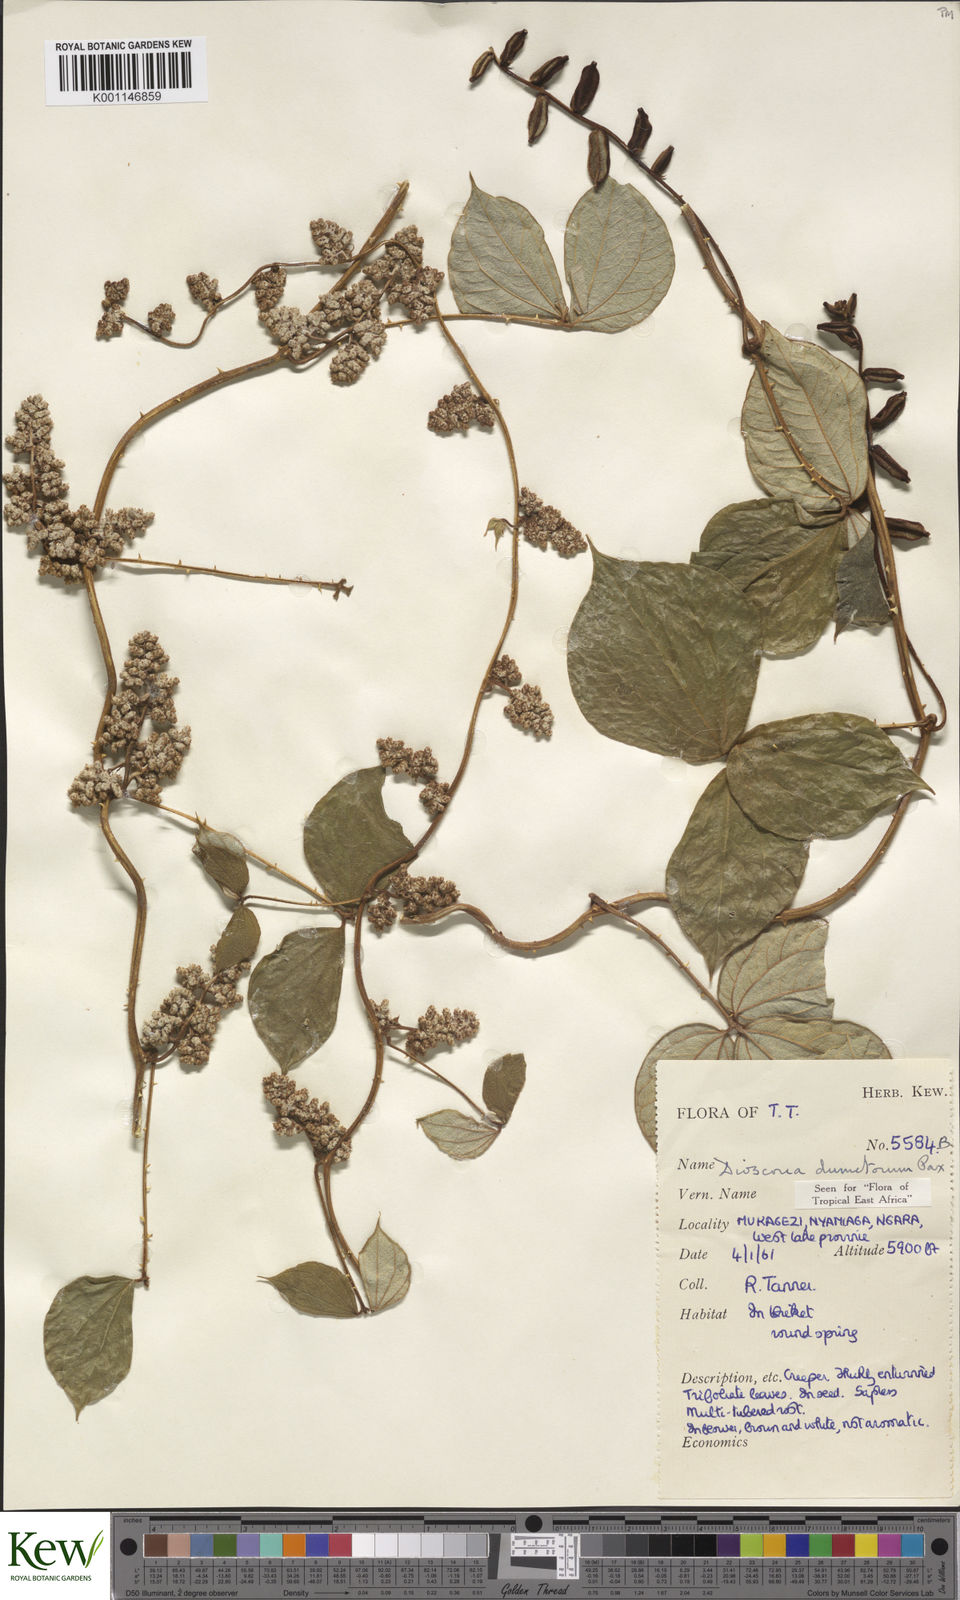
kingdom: Plantae
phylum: Tracheophyta
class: Liliopsida
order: Dioscoreales
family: Dioscoreaceae
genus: Dioscorea
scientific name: Dioscorea dumetorum
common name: African bitter yam
